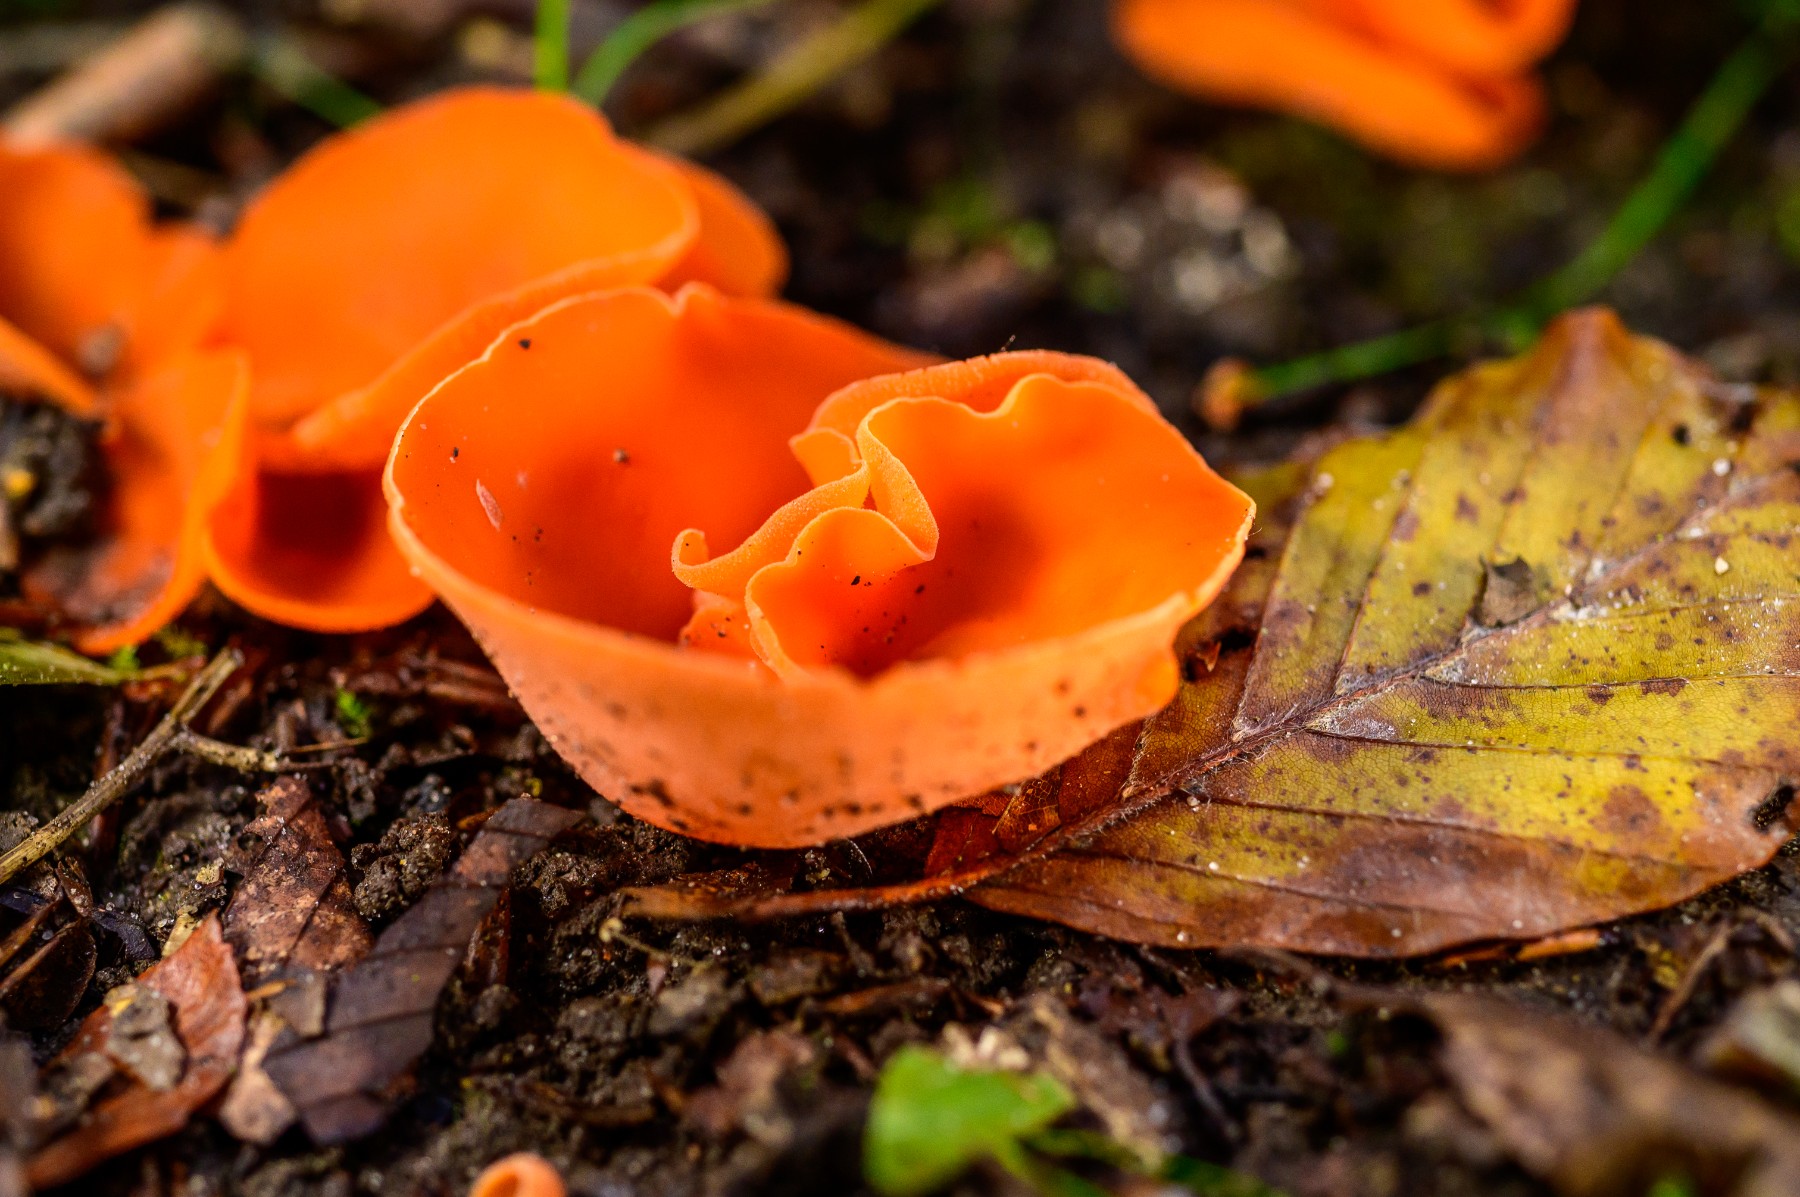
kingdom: Fungi
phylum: Ascomycota
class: Pezizomycetes
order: Pezizales
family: Pyronemataceae
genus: Aleuria
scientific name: Aleuria aurantia
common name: almindelig orangebæger
